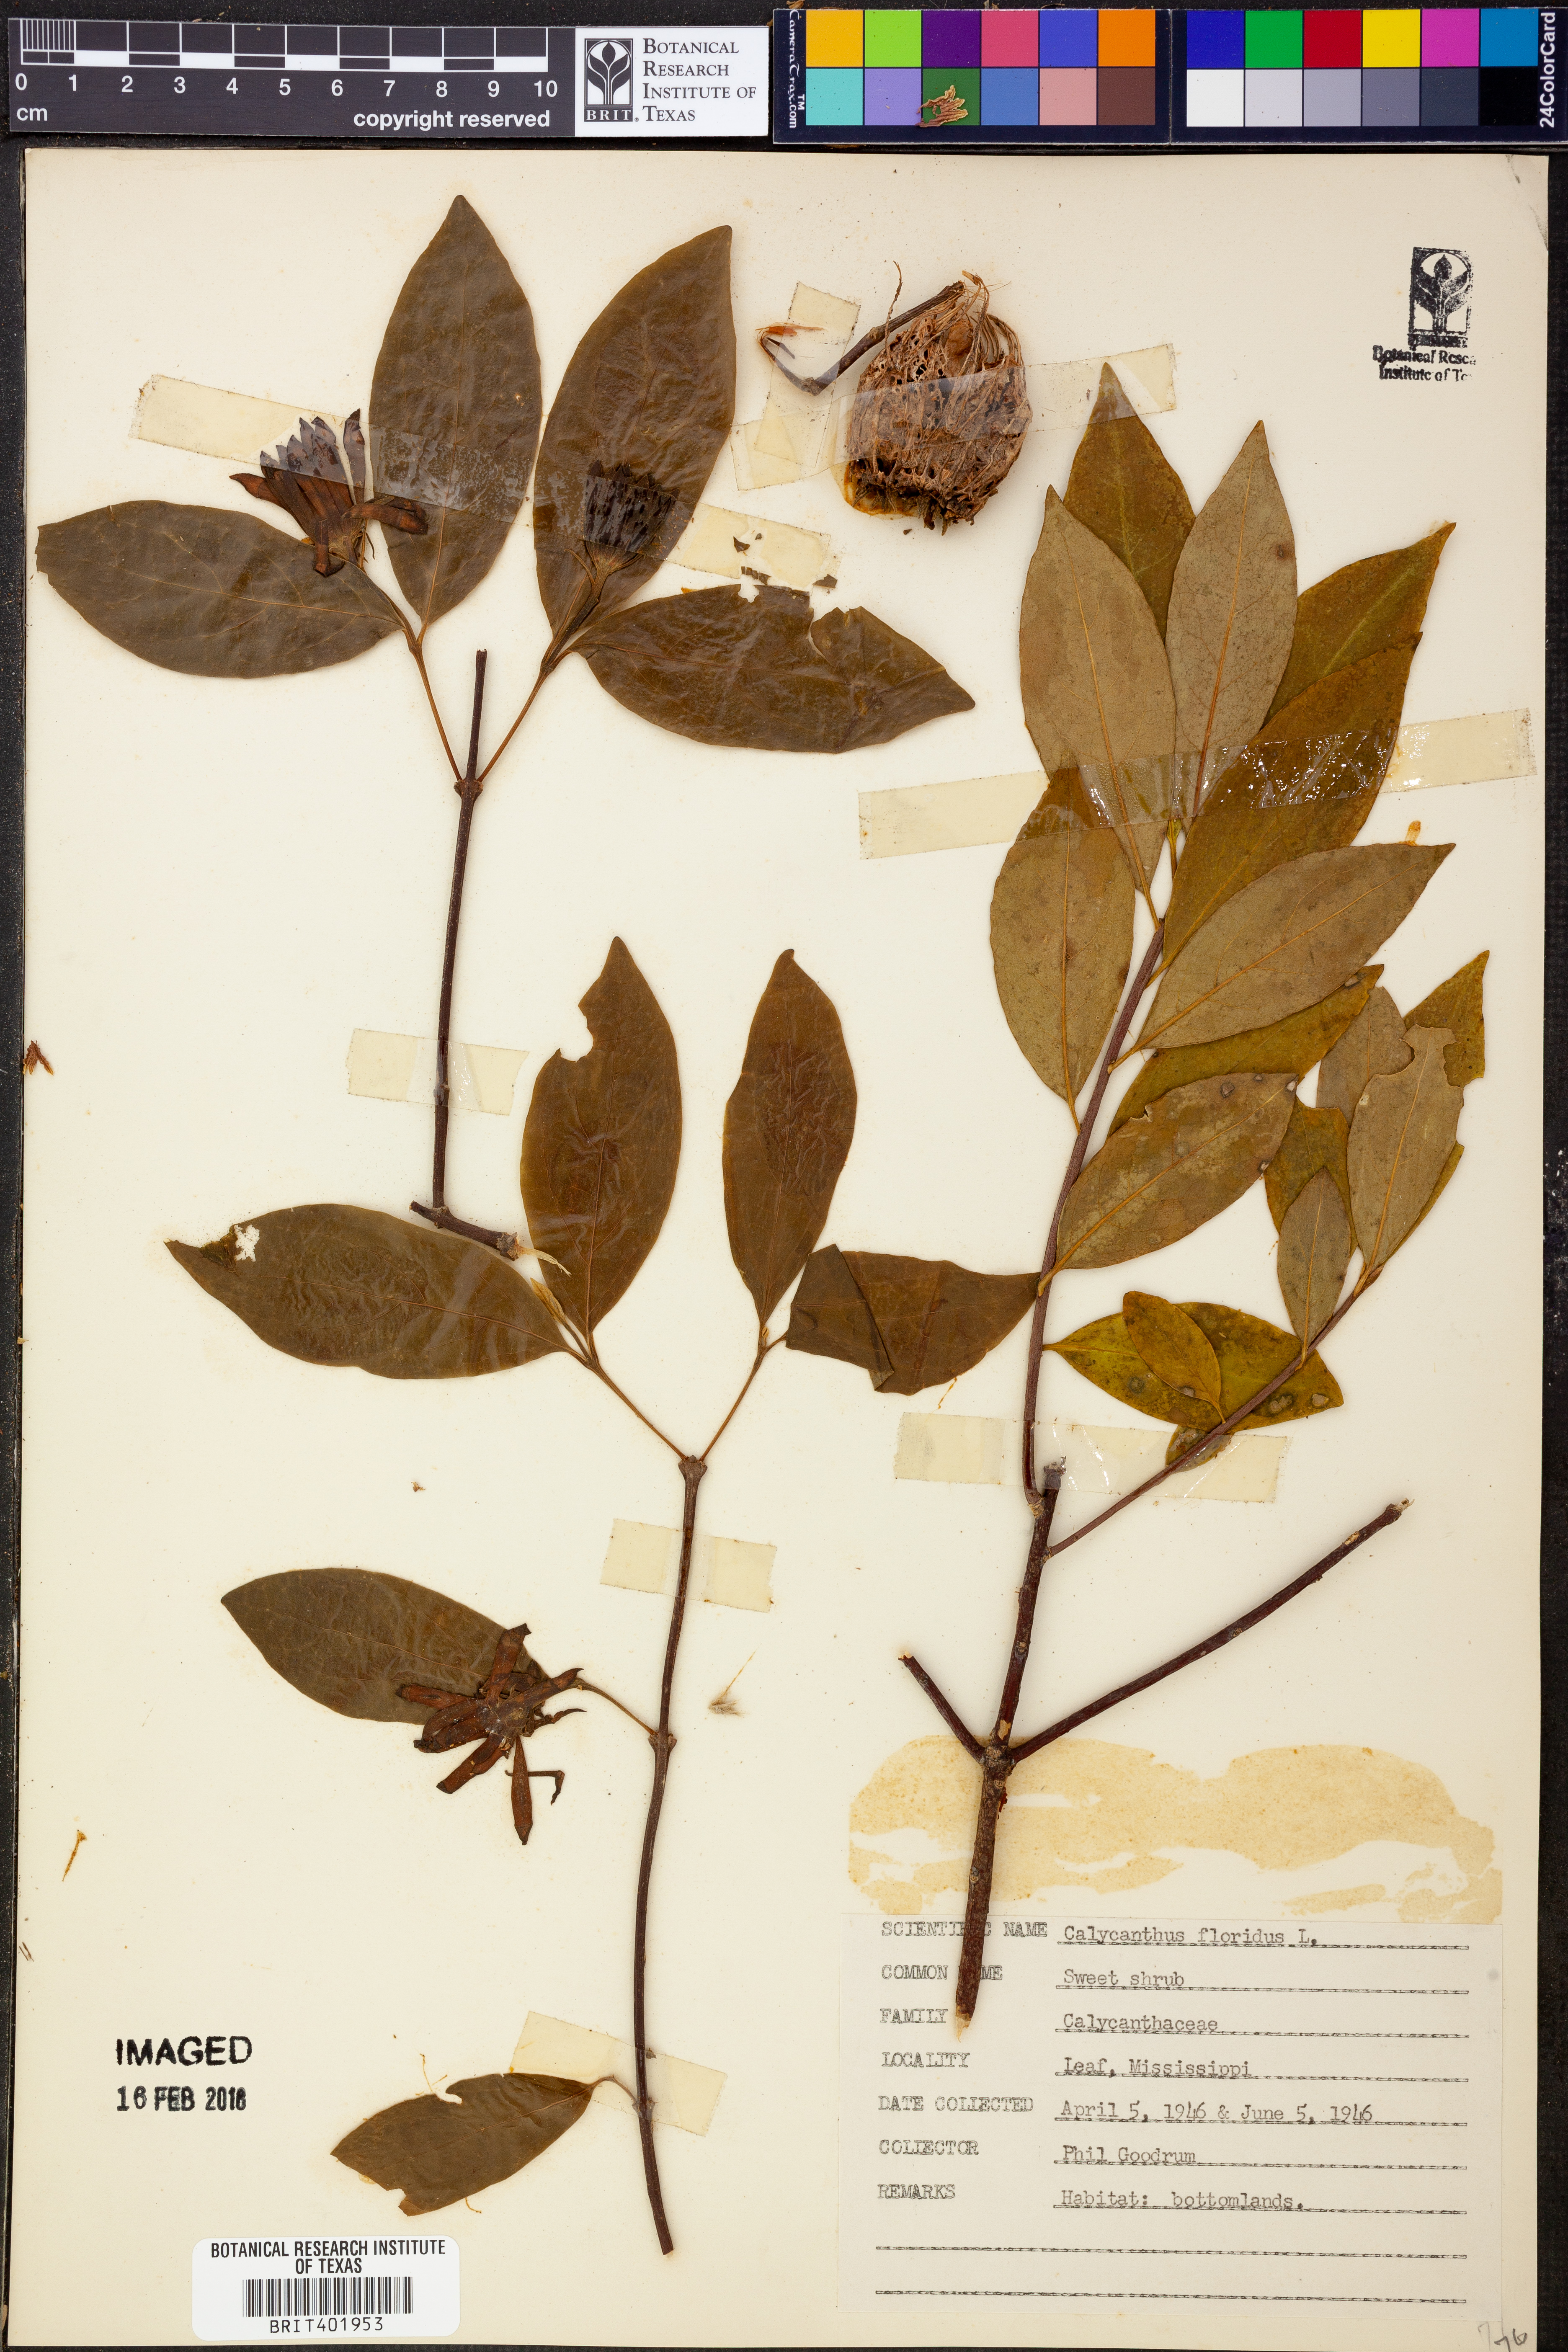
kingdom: Plantae
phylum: Tracheophyta
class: Magnoliopsida
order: Laurales
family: Calycanthaceae
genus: Calycanthus
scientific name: Calycanthus floridus
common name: Carolina-allspice
